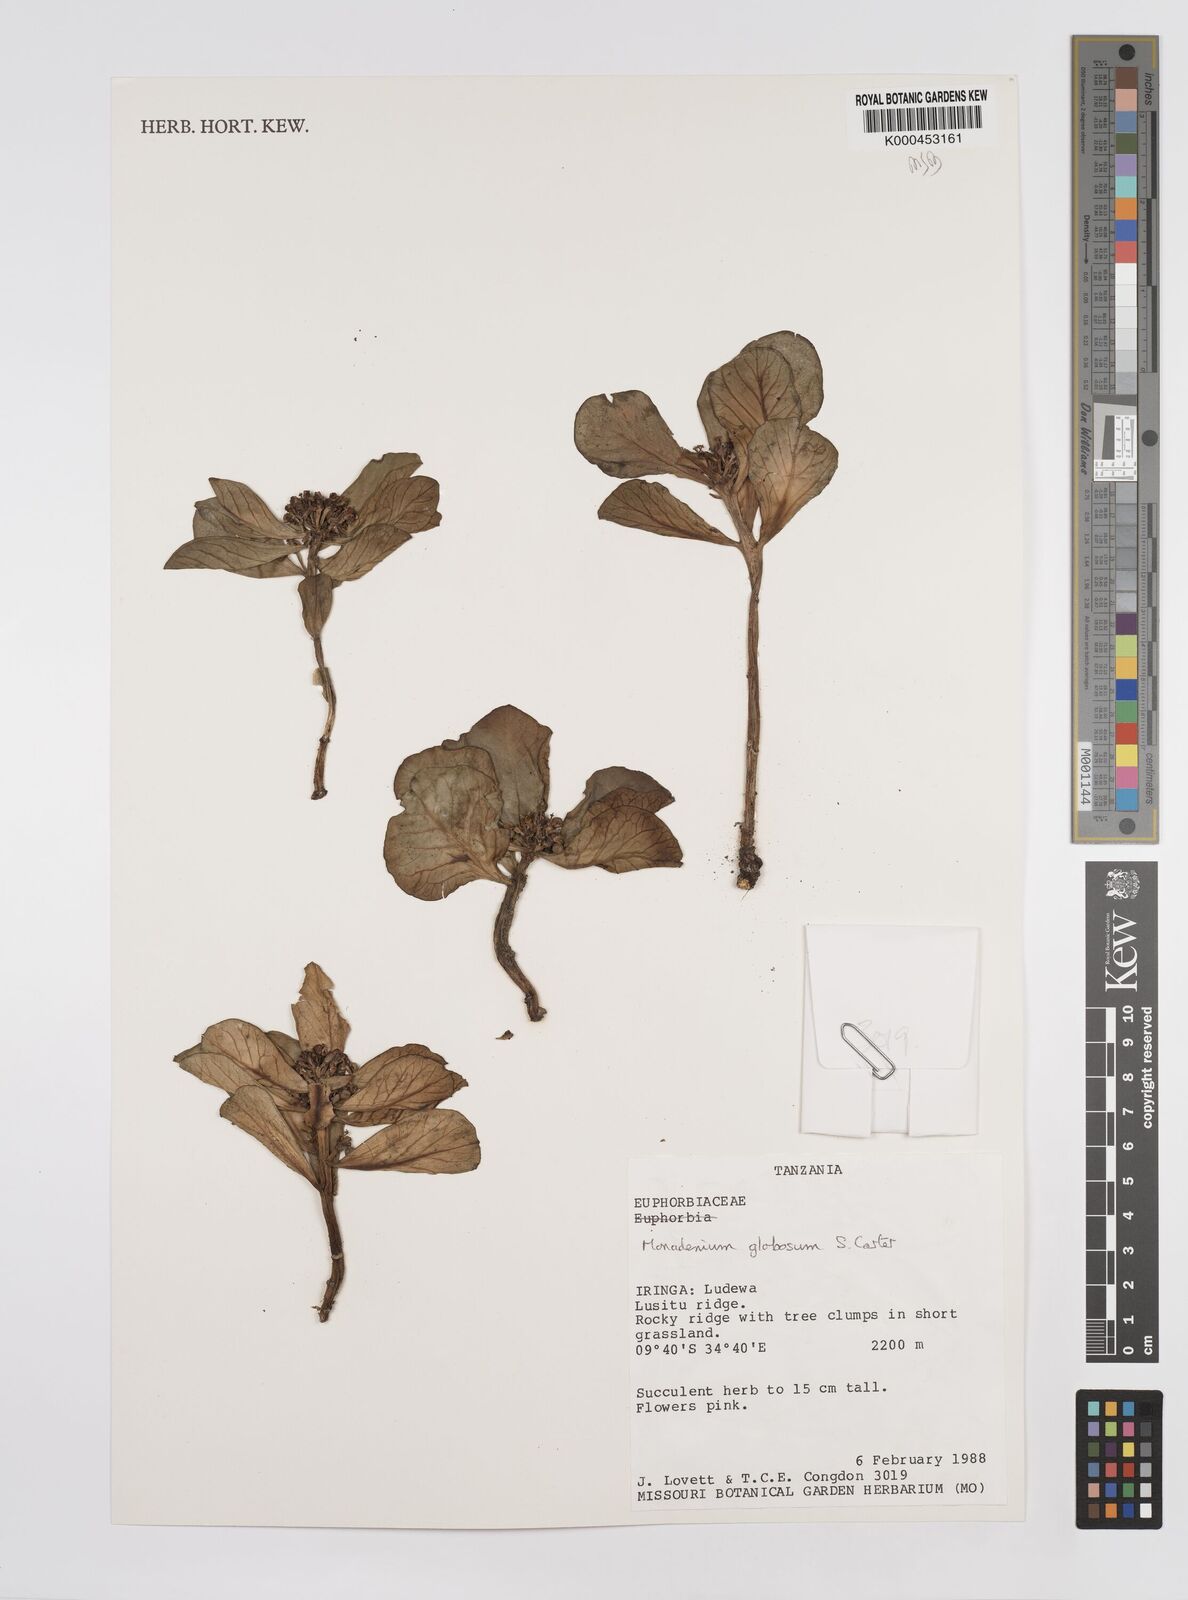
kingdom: Plantae
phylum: Tracheophyta
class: Magnoliopsida
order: Malpighiales
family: Euphorbiaceae
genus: Euphorbia
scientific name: Euphorbia bisglobosa
